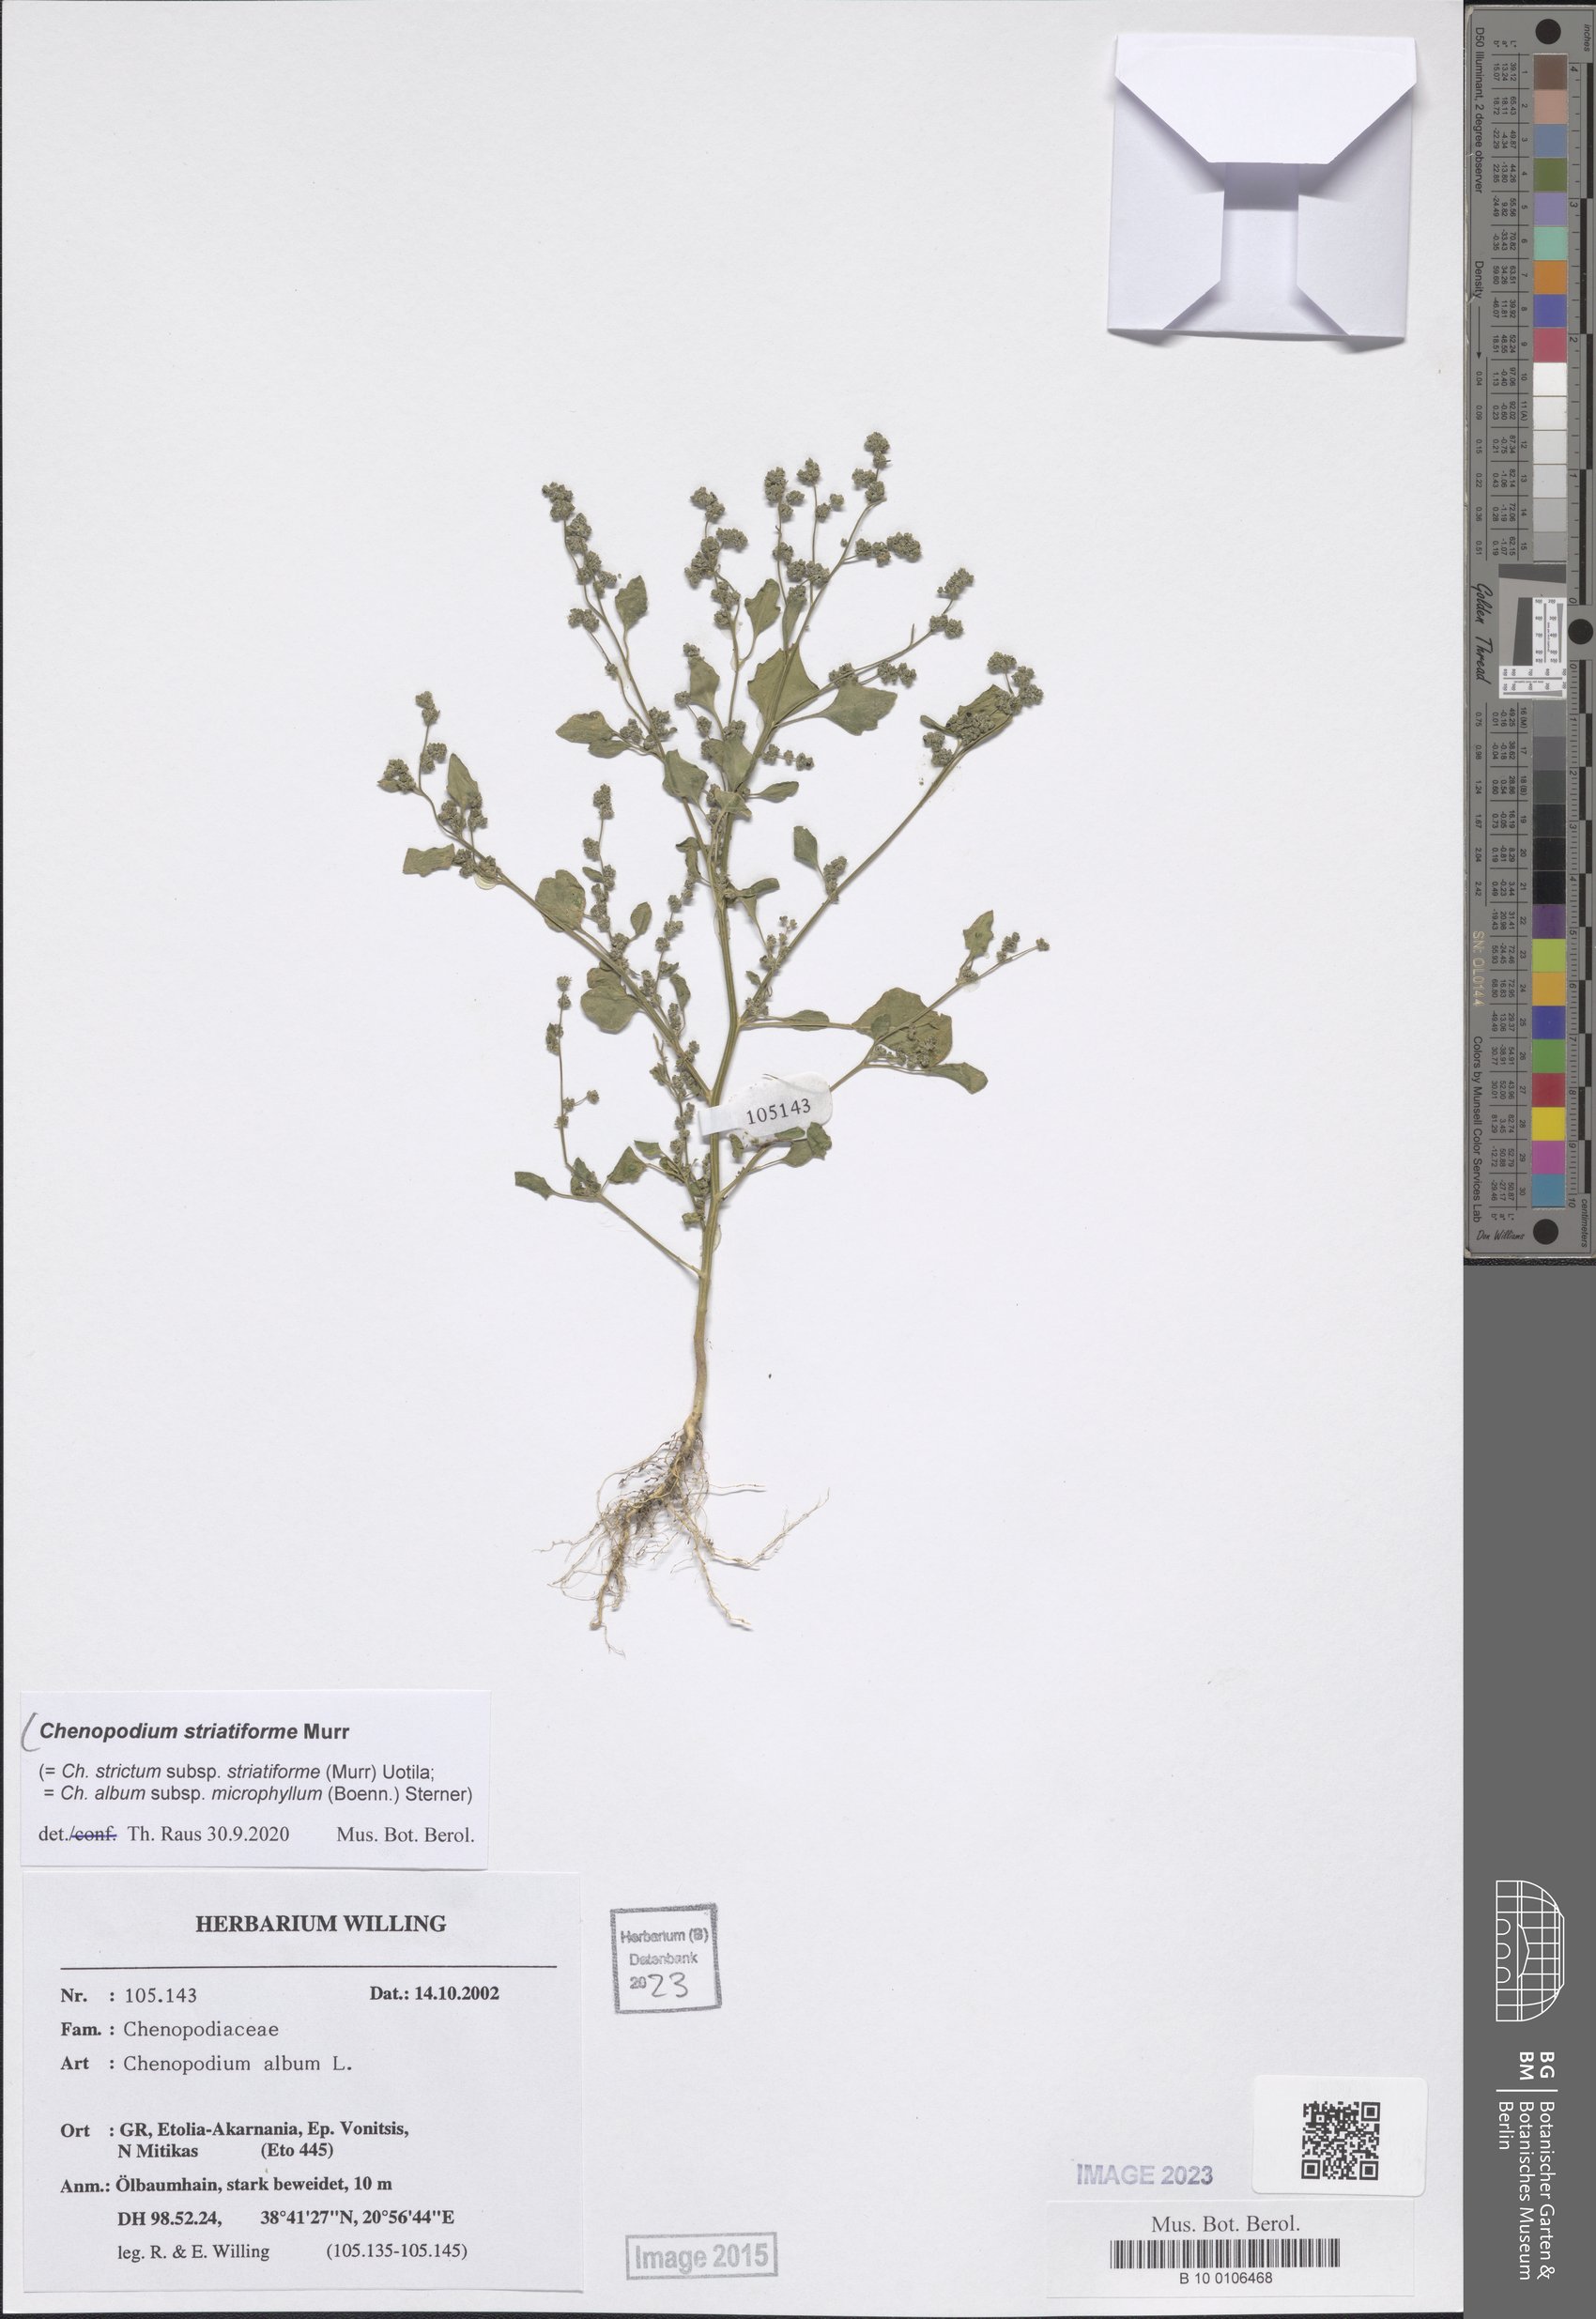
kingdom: Plantae
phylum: Tracheophyta
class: Magnoliopsida
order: Caryophyllales
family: Amaranthaceae
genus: Chenopodium
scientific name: Chenopodium striatiforme
